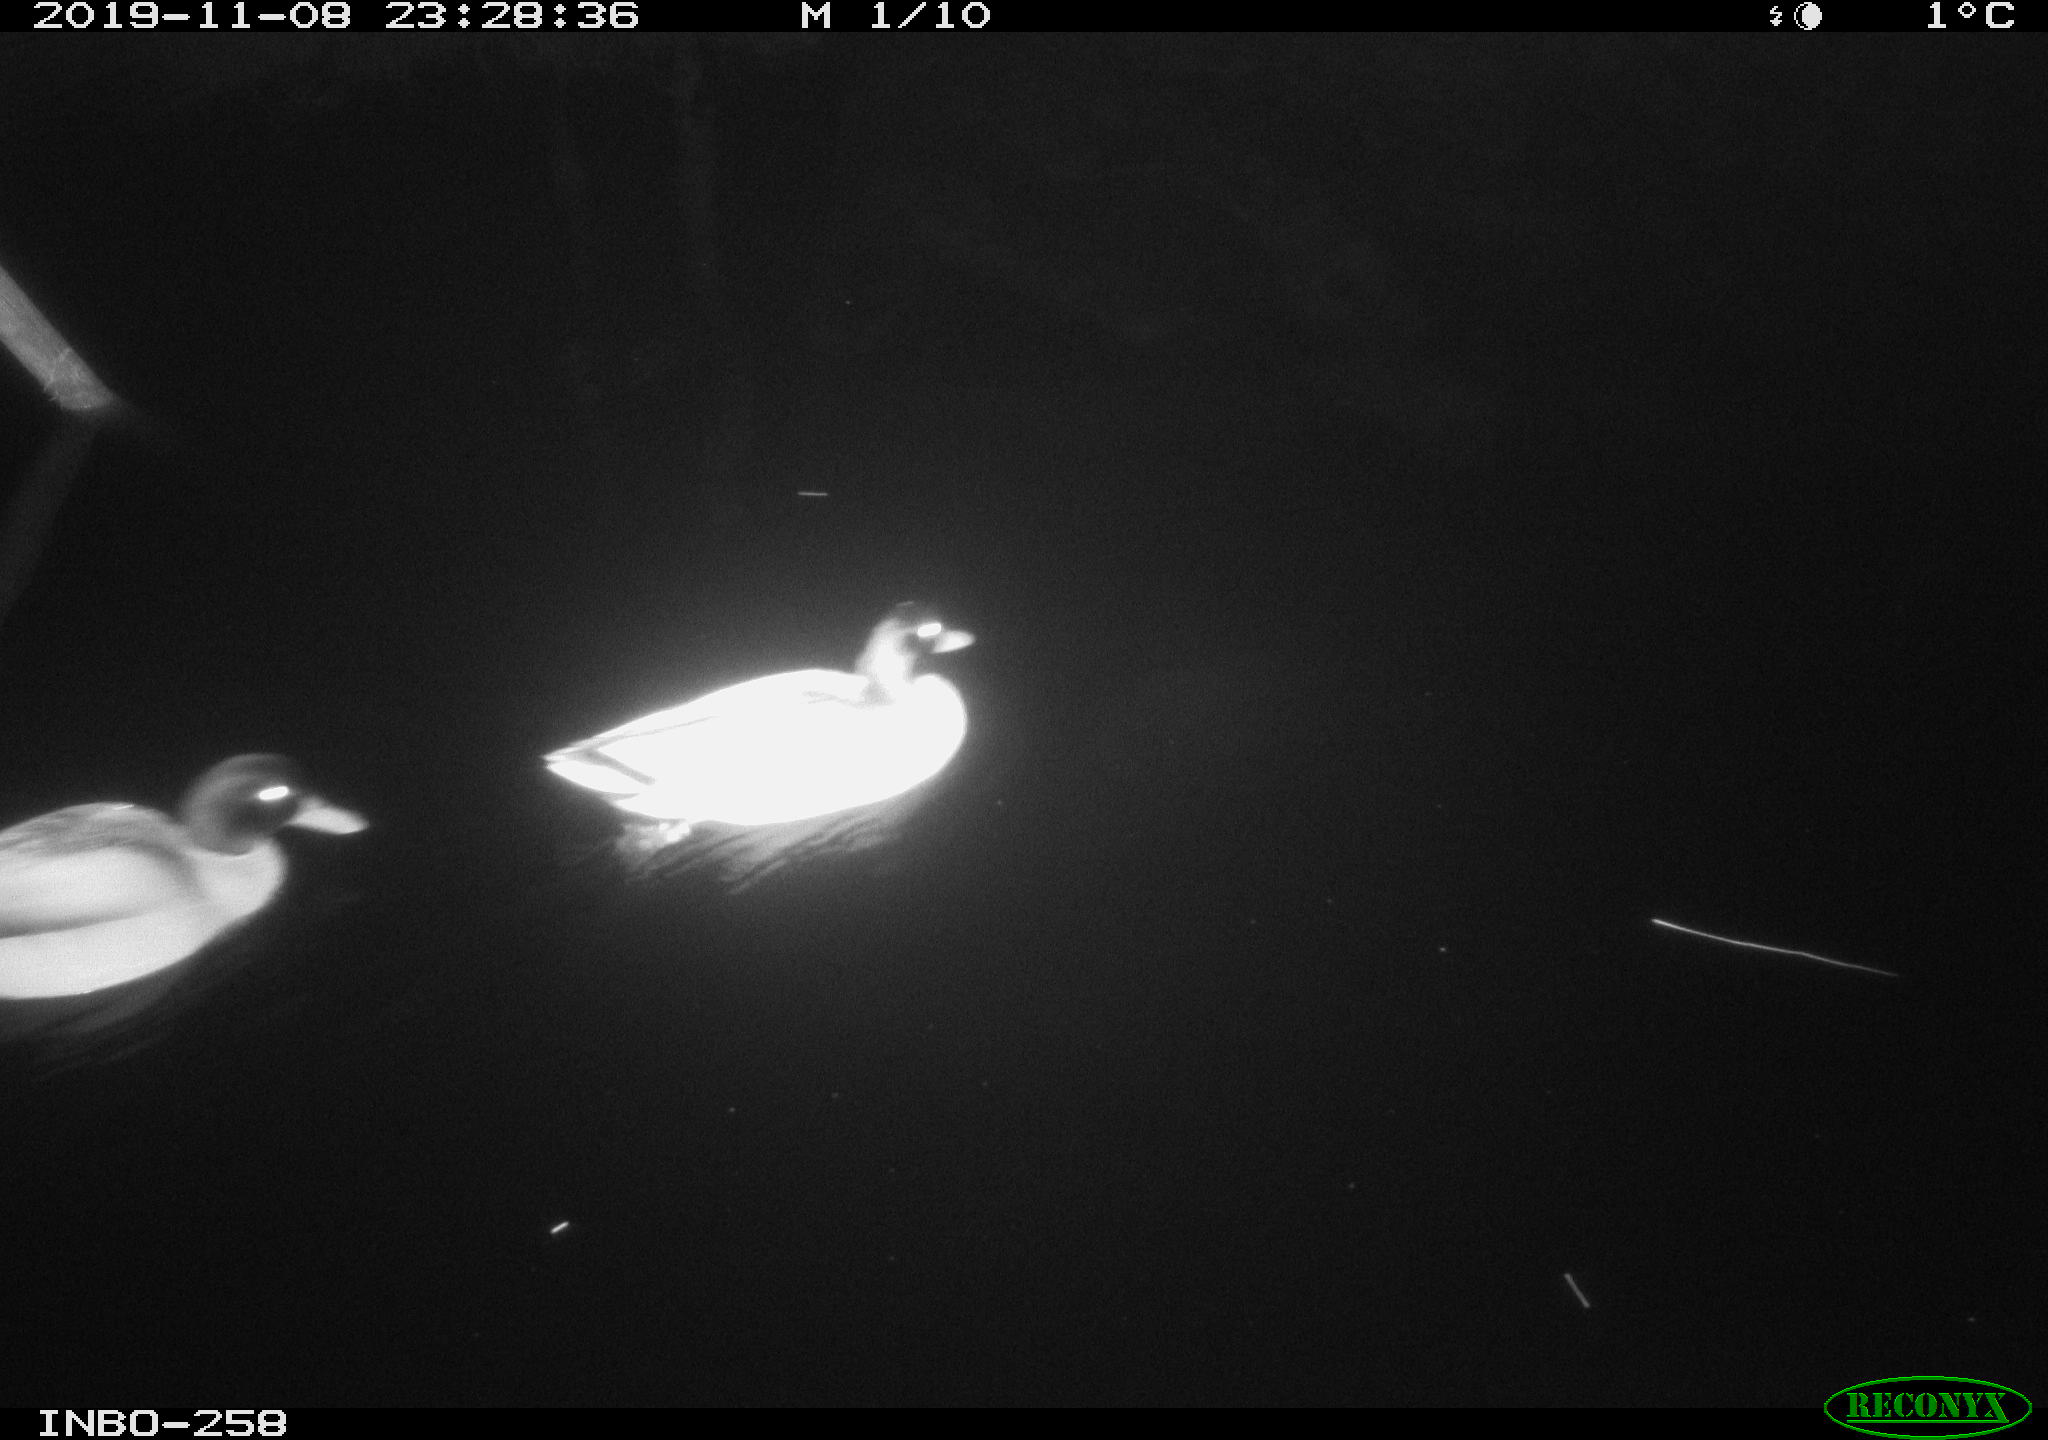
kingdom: Animalia
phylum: Chordata
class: Aves
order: Anseriformes
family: Anatidae
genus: Anas
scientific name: Anas platyrhynchos
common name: Mallard
